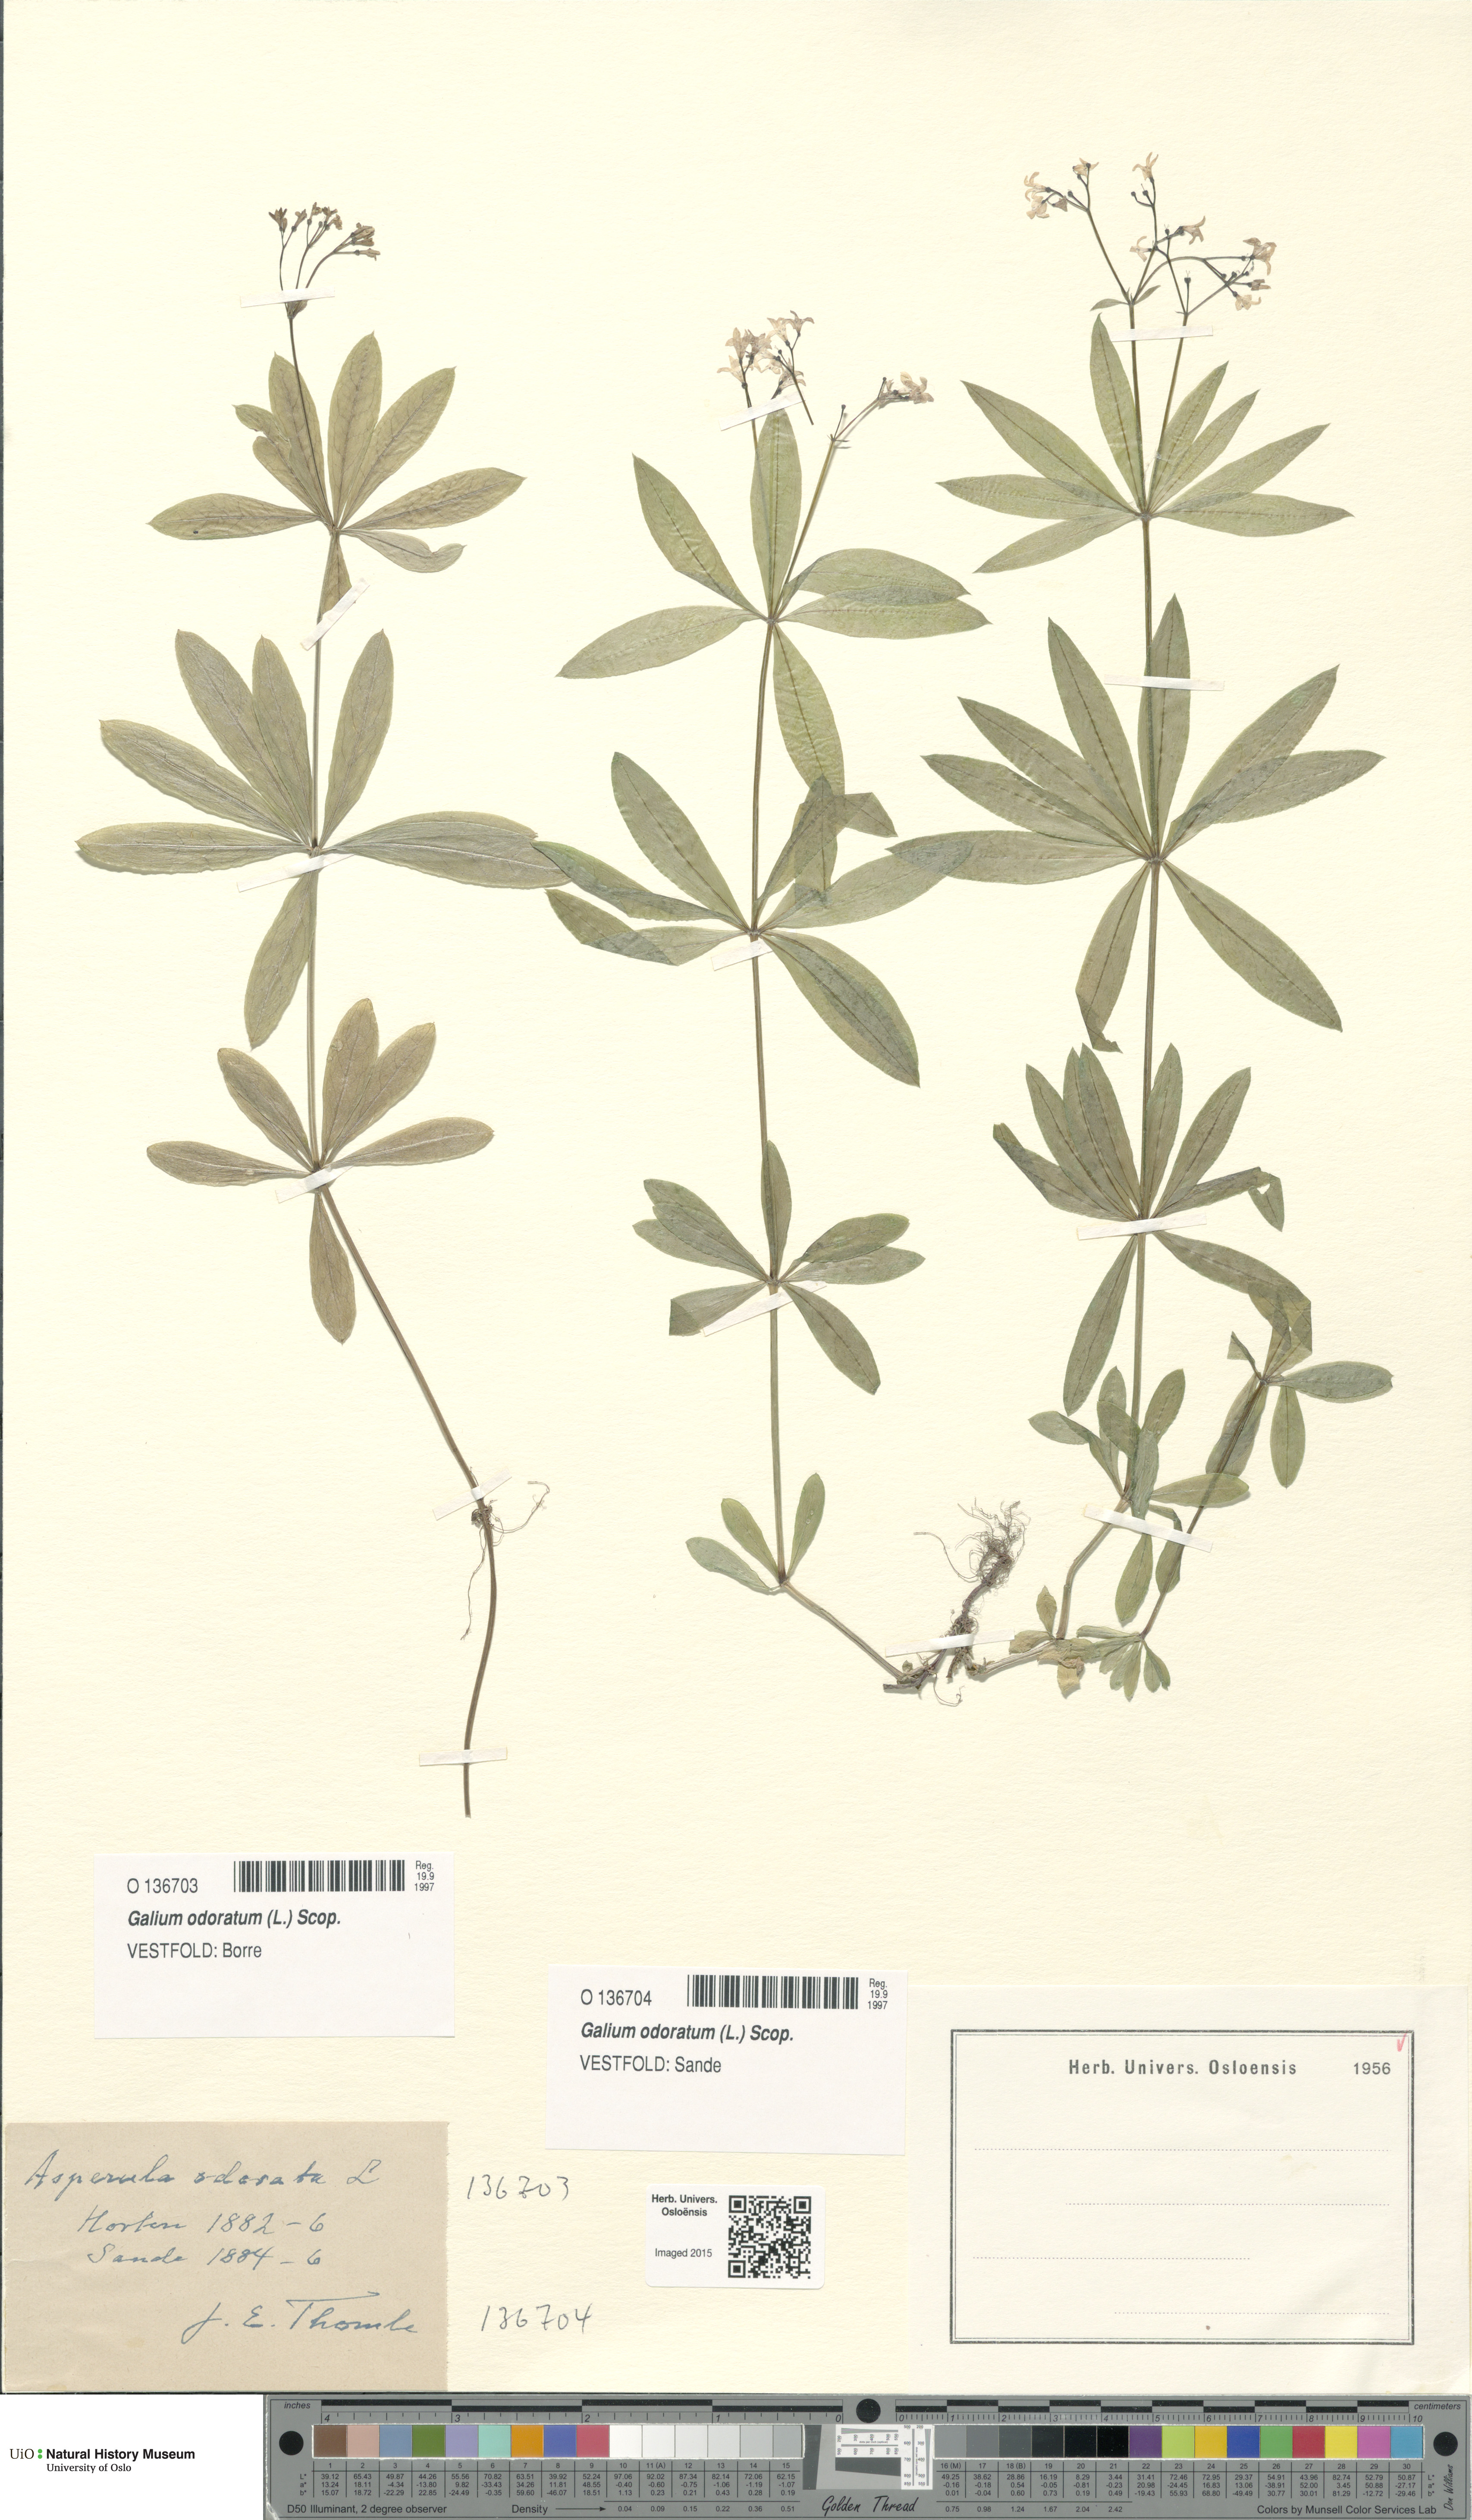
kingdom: Plantae
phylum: Tracheophyta
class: Magnoliopsida
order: Gentianales
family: Rubiaceae
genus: Galium
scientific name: Galium odoratum
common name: Sweet woodruff
